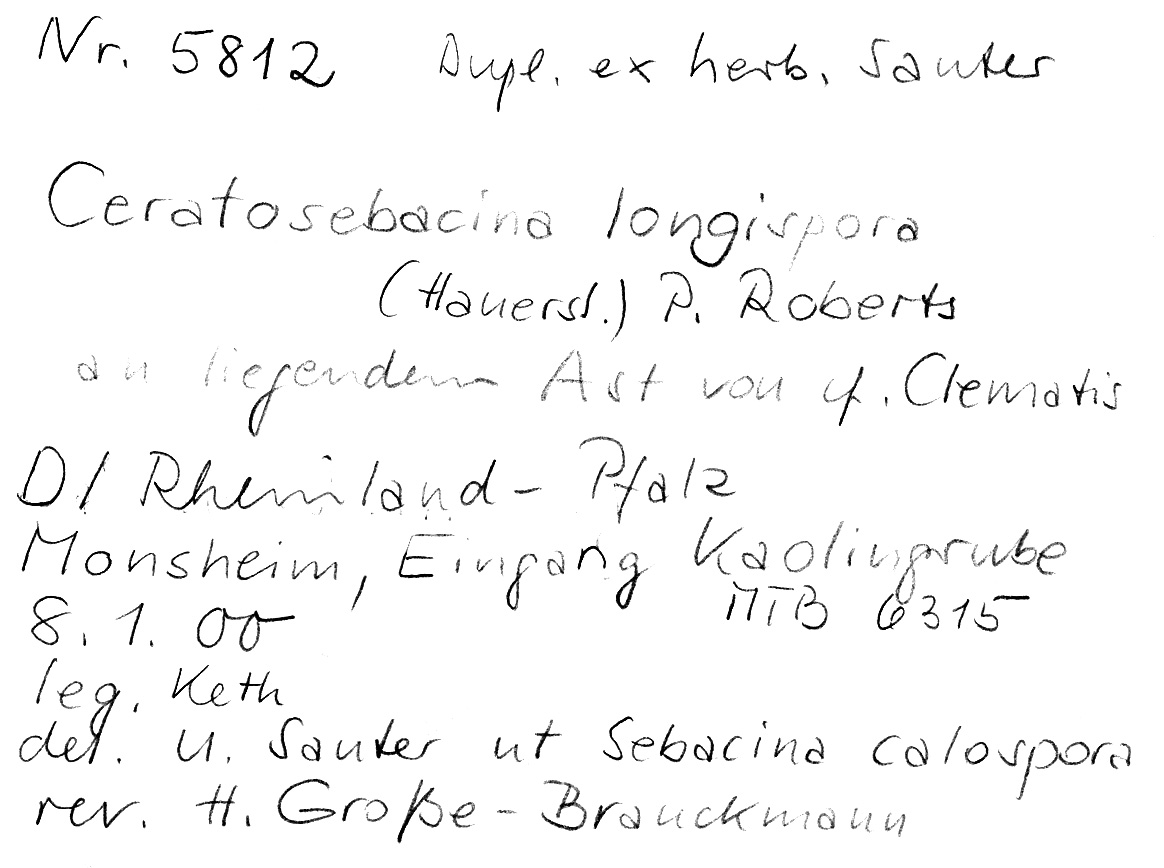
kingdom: Fungi
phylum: Basidiomycota
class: Agaricomycetes
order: Auriculariales
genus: Ceratosebacina
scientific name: Ceratosebacina longispora
